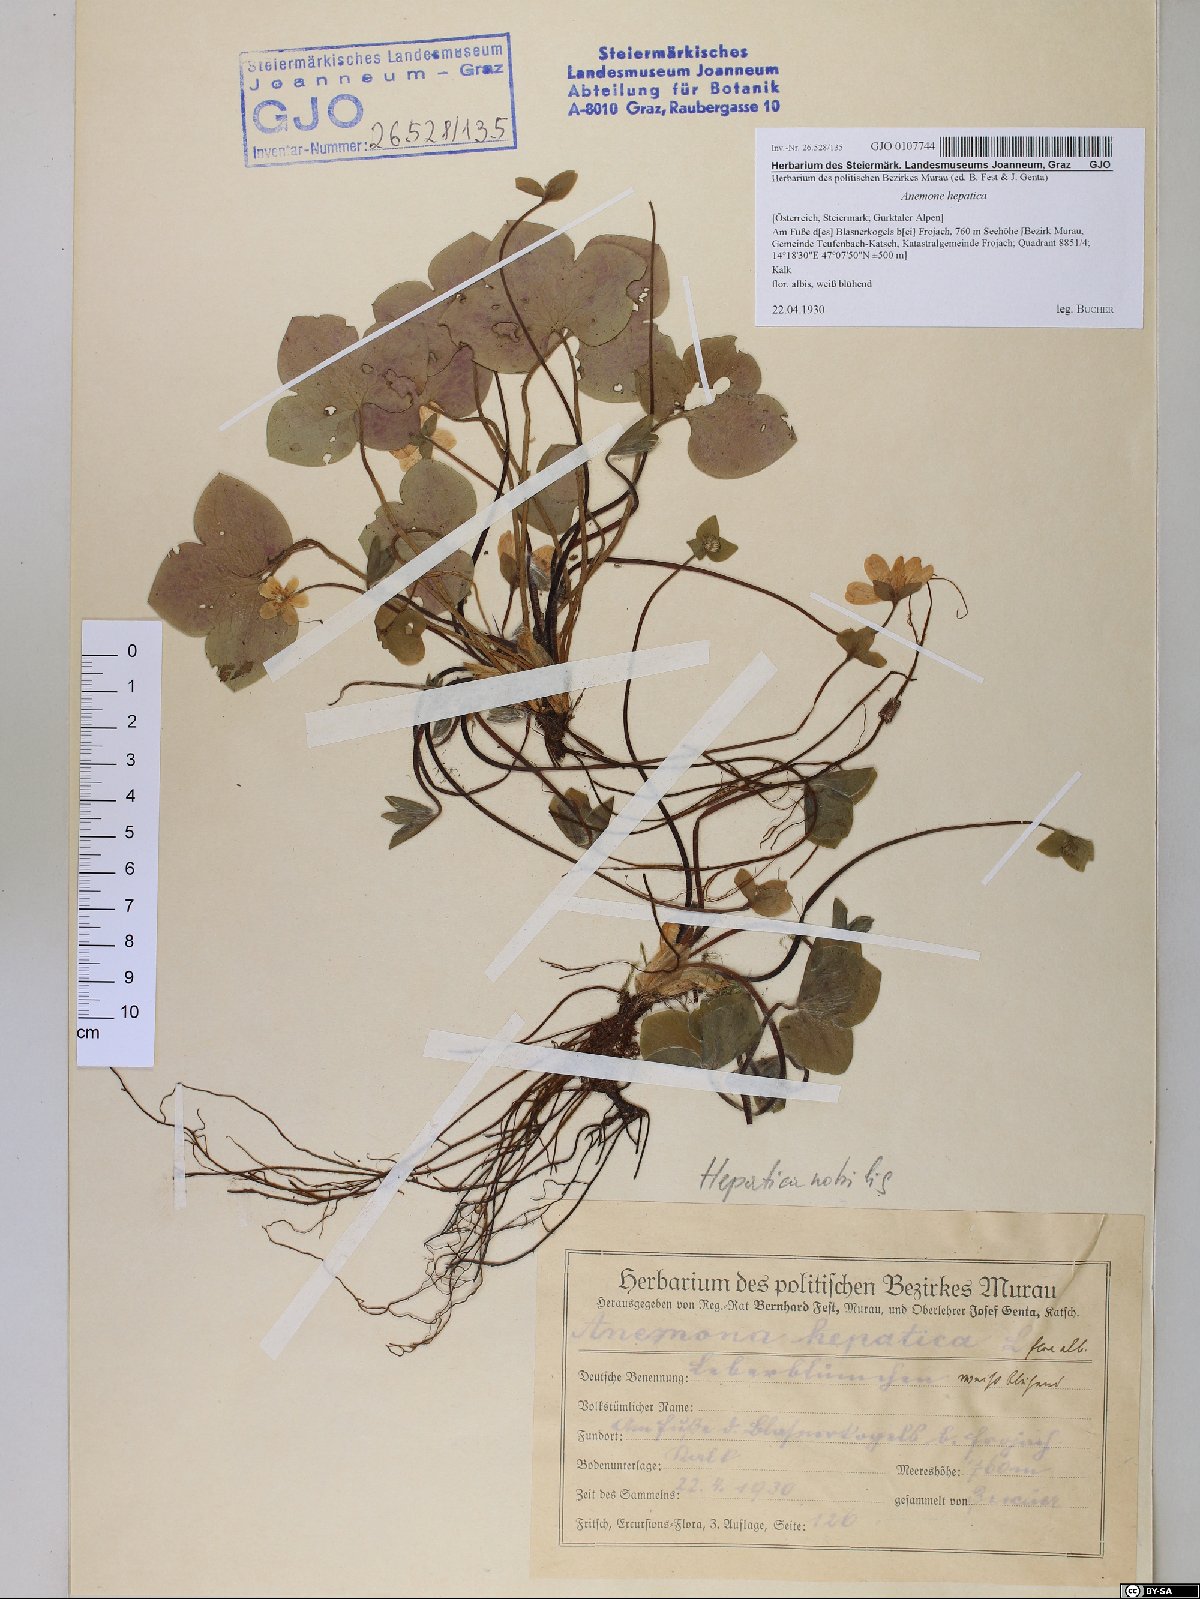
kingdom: Plantae
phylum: Tracheophyta
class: Magnoliopsida
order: Ranunculales
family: Ranunculaceae
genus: Hepatica
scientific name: Hepatica nobilis
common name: Liverleaf
